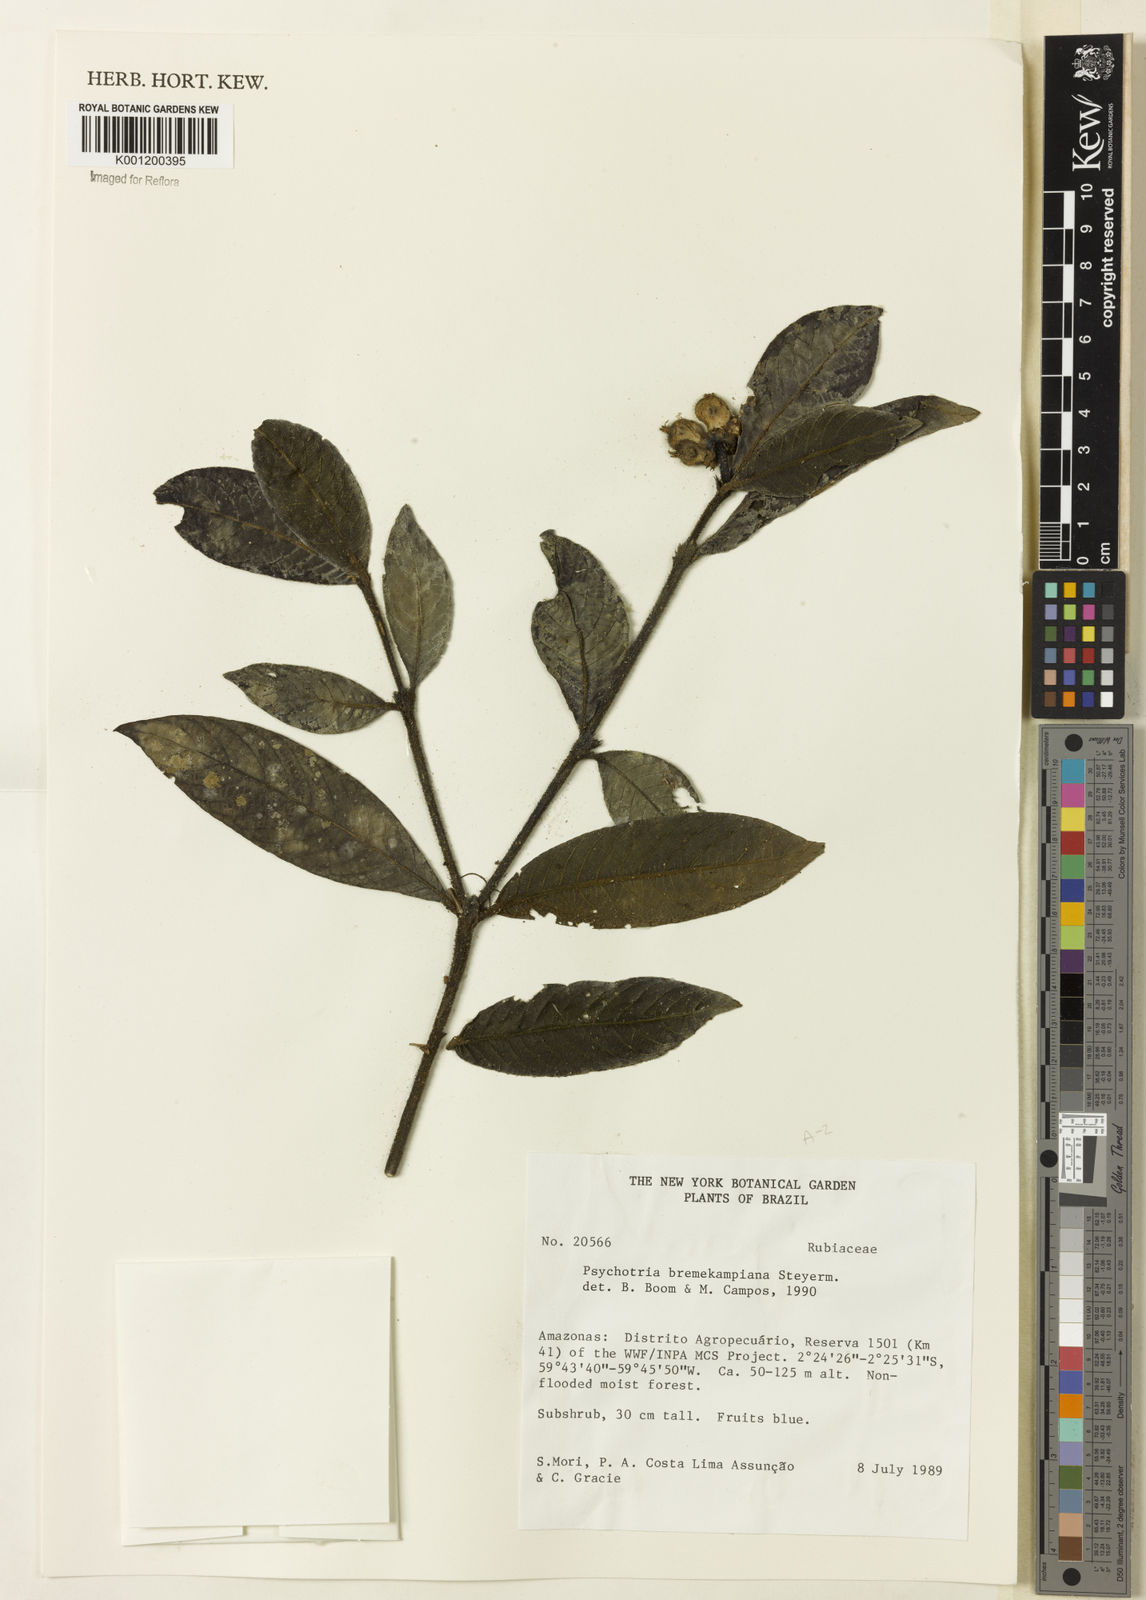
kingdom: Plantae
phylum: Tracheophyta
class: Magnoliopsida
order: Gentianales
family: Rubiaceae
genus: Palicourea
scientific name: Palicourea hirta
